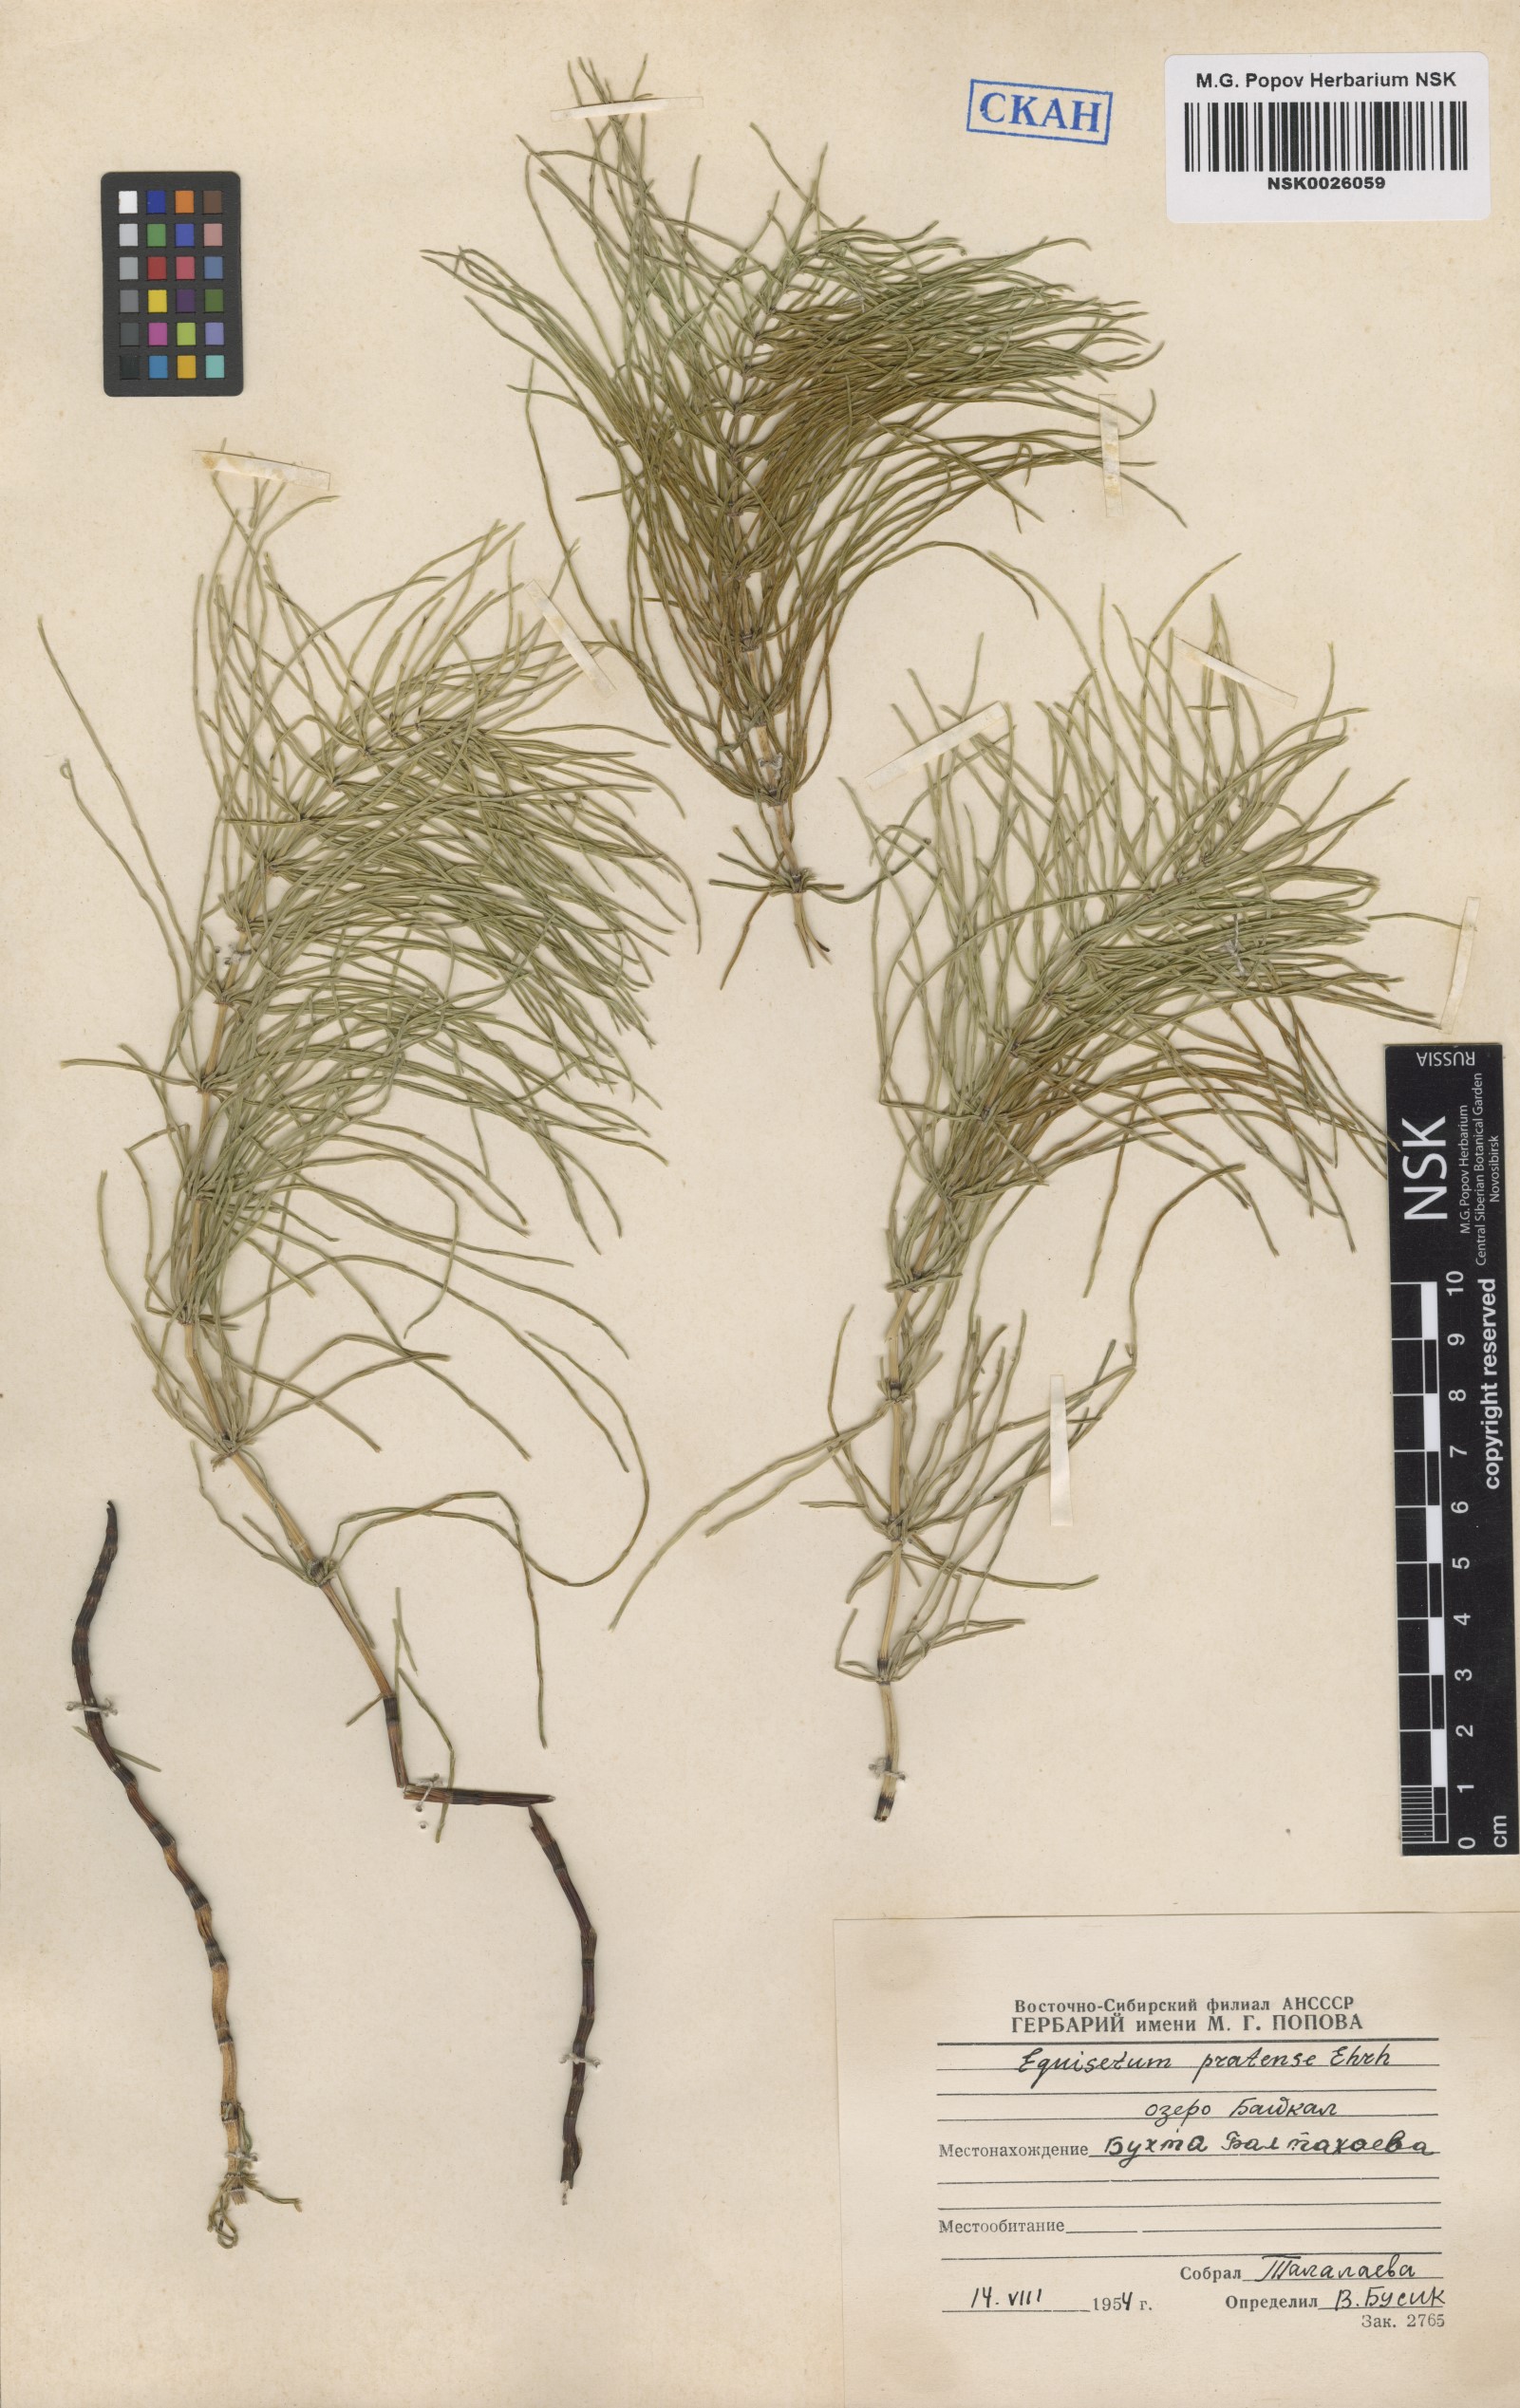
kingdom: Plantae
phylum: Tracheophyta
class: Polypodiopsida
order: Equisetales
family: Equisetaceae
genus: Equisetum
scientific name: Equisetum pratense
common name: Meadow horsetail
